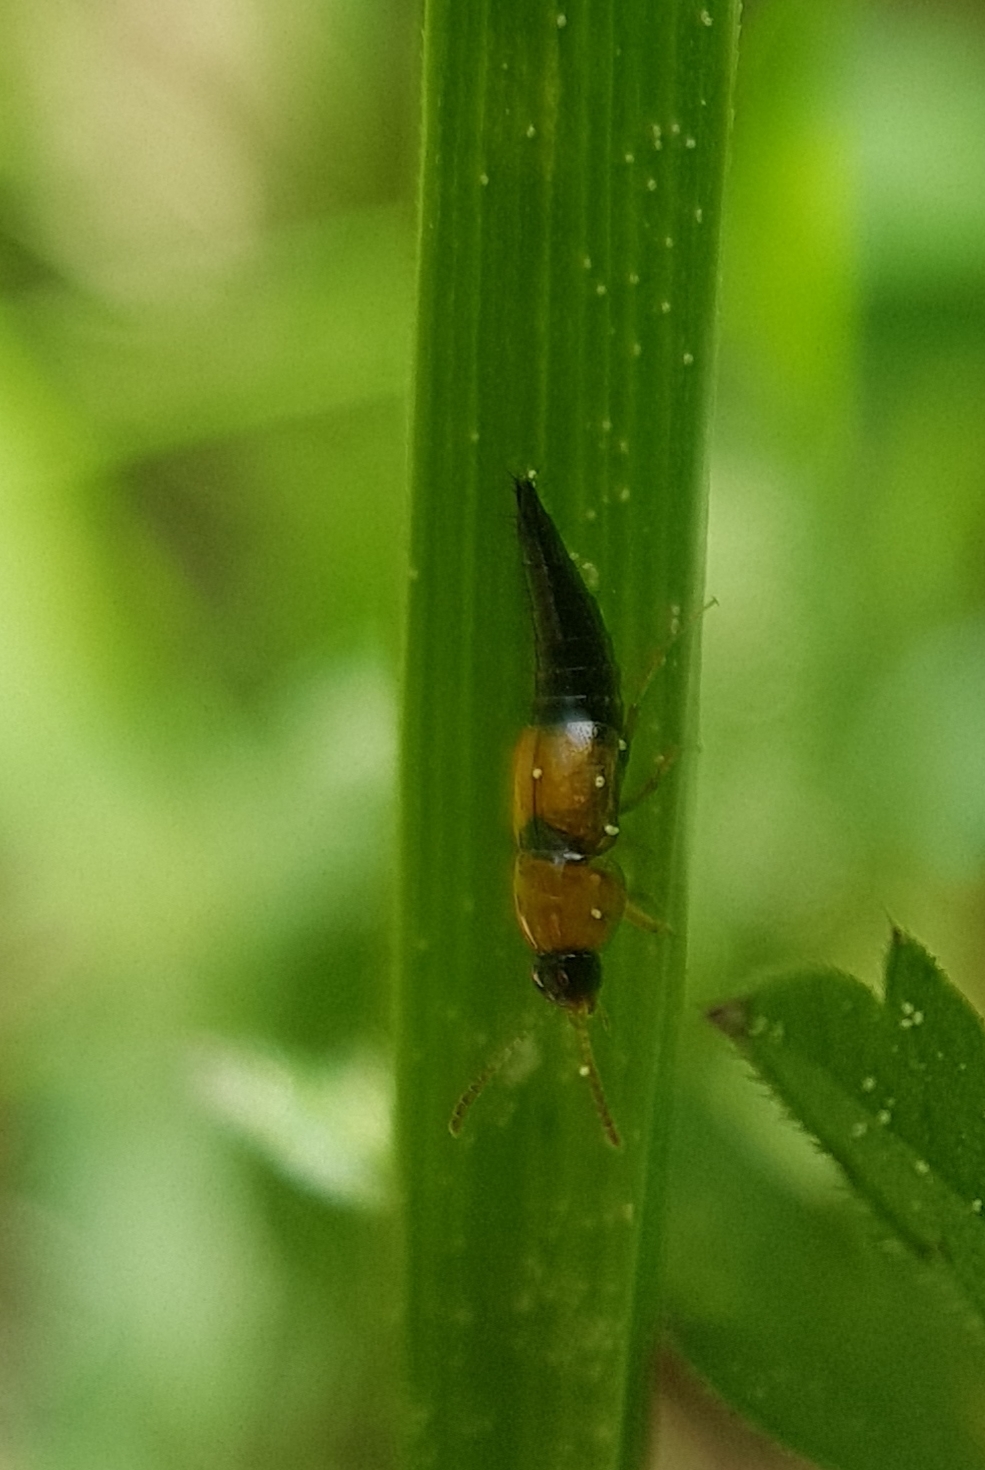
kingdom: Animalia
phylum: Arthropoda
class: Insecta
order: Coleoptera
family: Staphylinidae
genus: Tachyporus
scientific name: Tachyporus solutus
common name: Gulvinget agerrovbille
